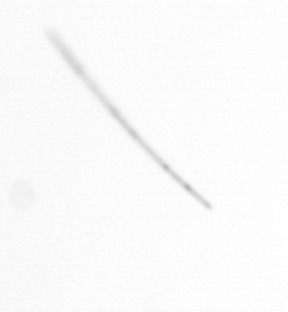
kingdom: Chromista
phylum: Ochrophyta
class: Bacillariophyceae
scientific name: Bacillariophyceae
